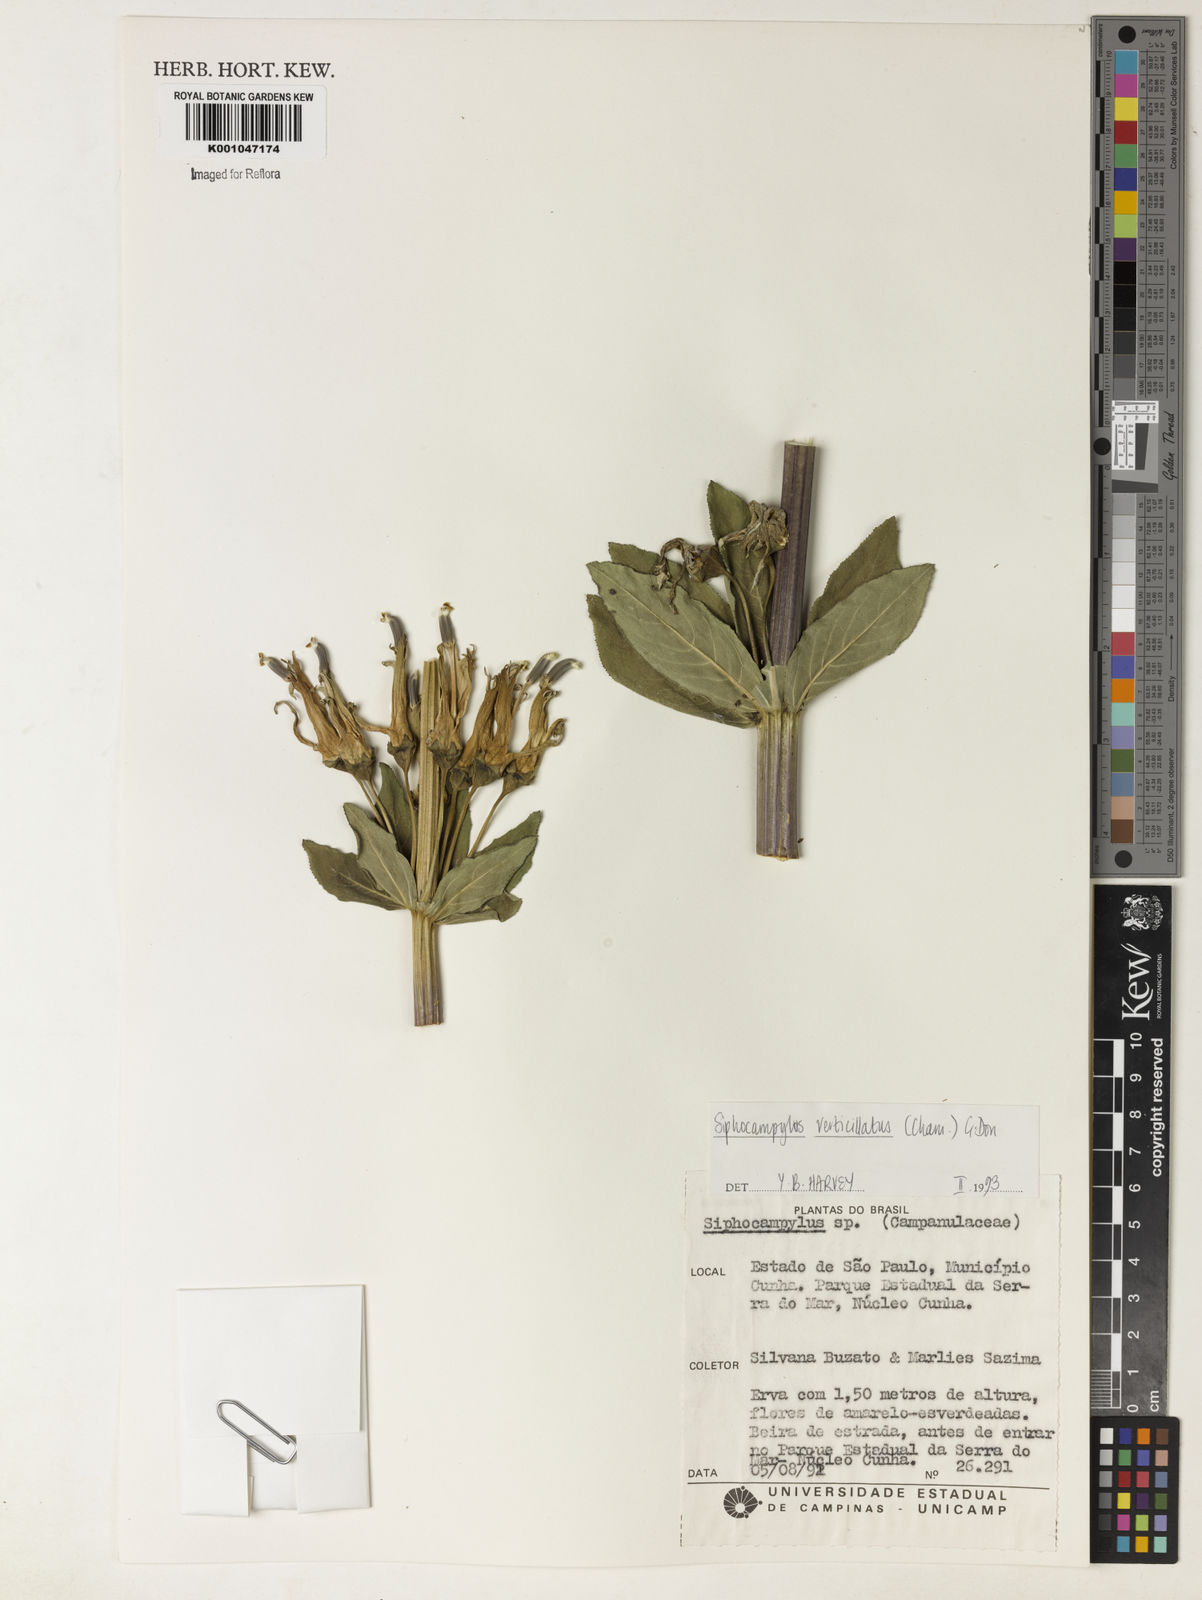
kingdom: Plantae
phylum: Tracheophyta
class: Magnoliopsida
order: Asterales
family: Campanulaceae
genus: Siphocampylus
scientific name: Siphocampylus verticillatus
